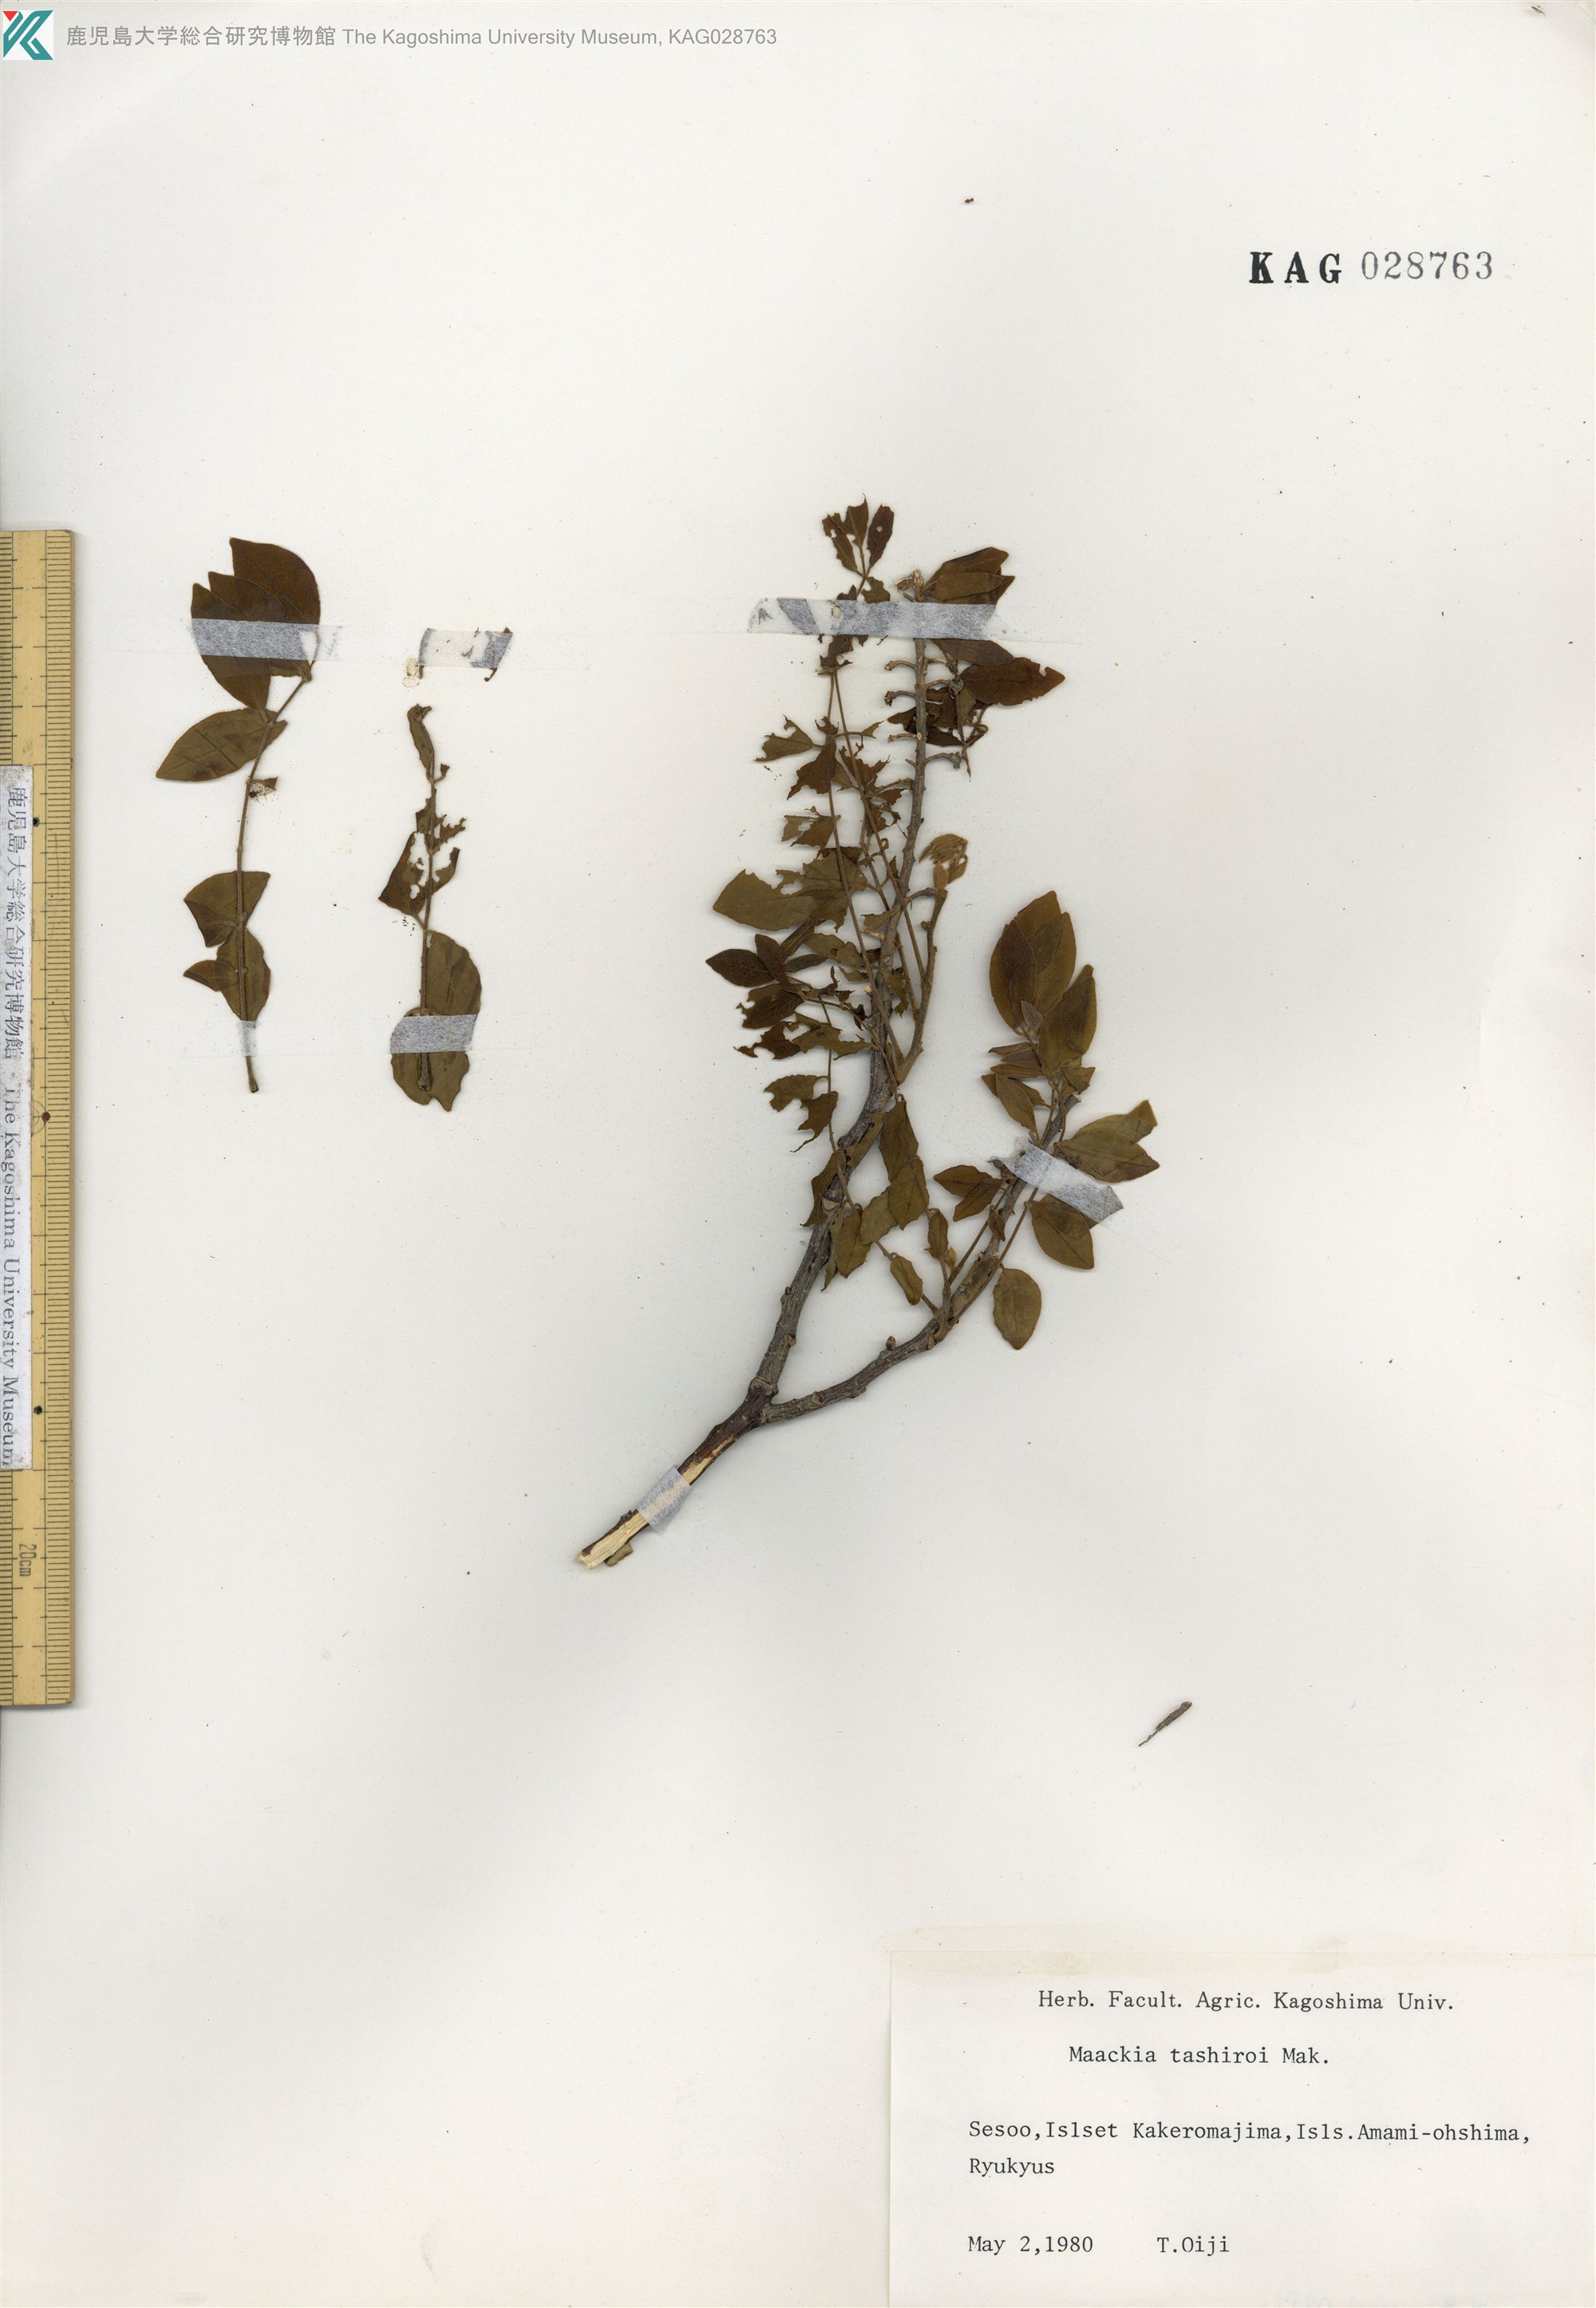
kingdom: Plantae
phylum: Tracheophyta
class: Magnoliopsida
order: Fabales
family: Fabaceae
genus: Maackia
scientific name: Maackia tashiroi
